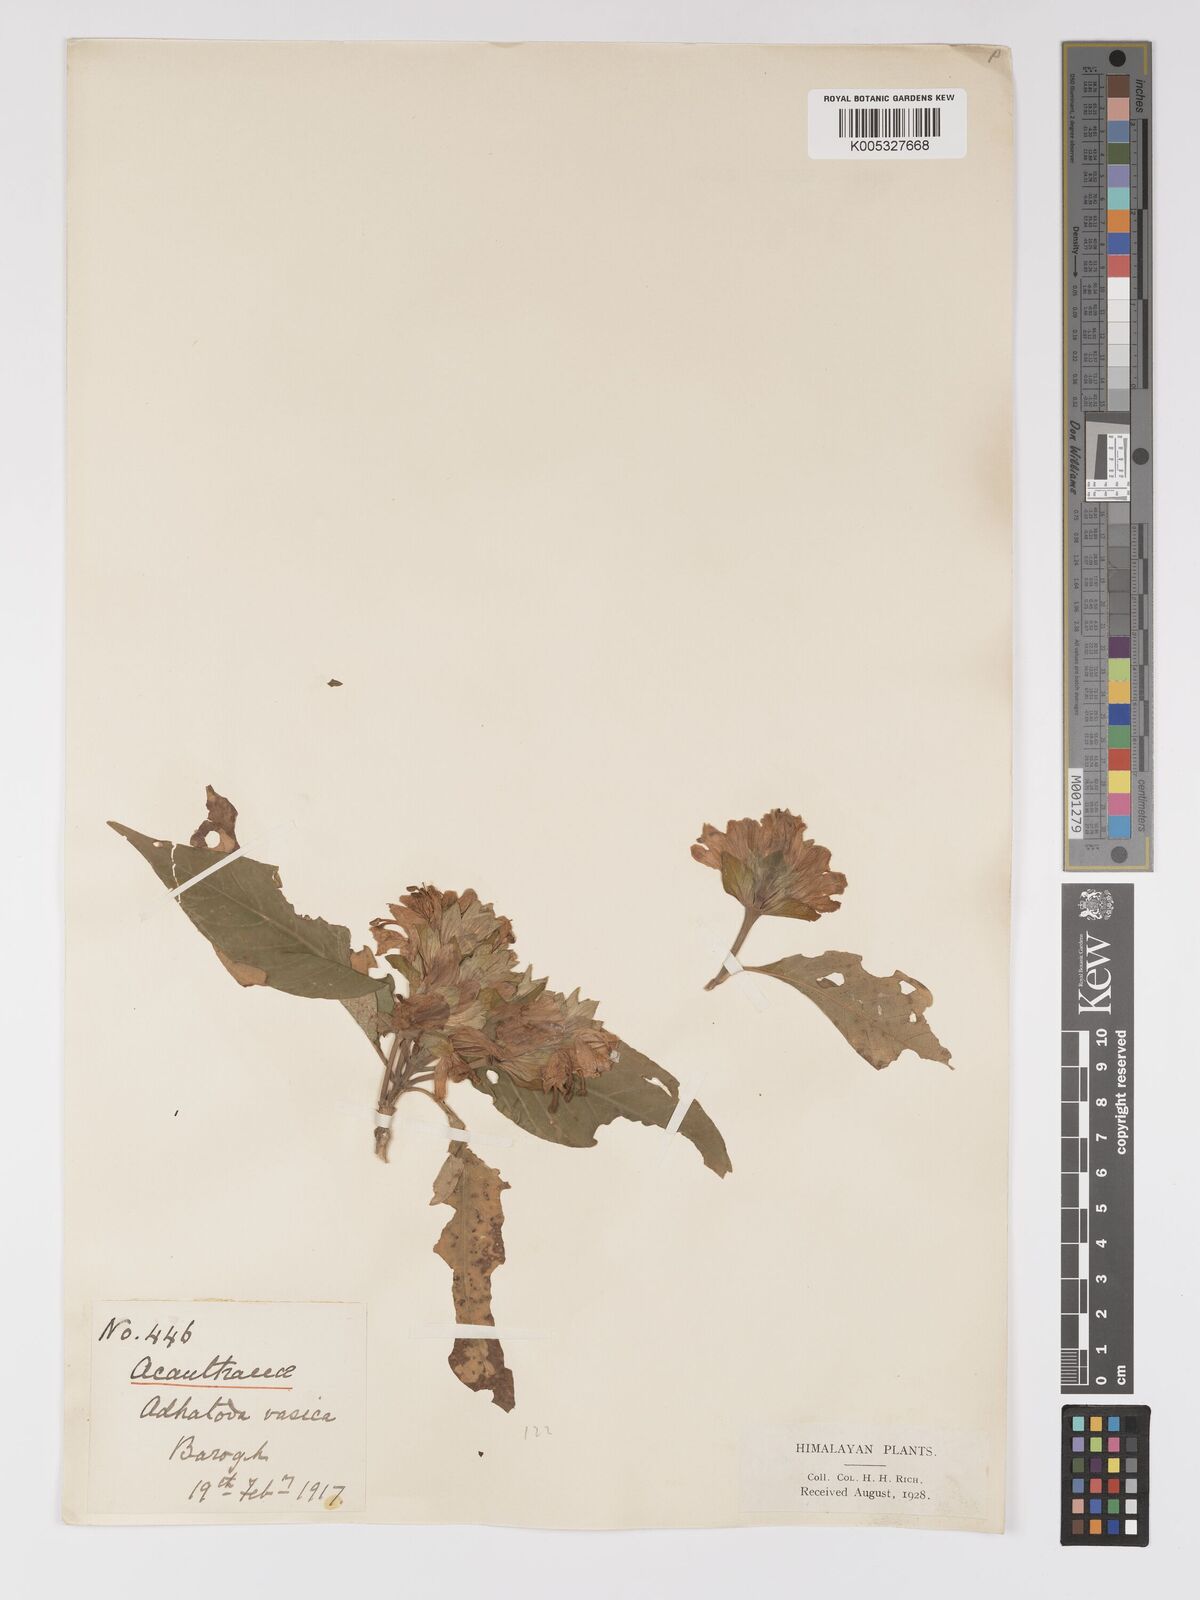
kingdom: Plantae
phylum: Tracheophyta
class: Magnoliopsida
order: Lamiales
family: Acanthaceae
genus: Ecbolium
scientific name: Ecbolium ligustrinum
